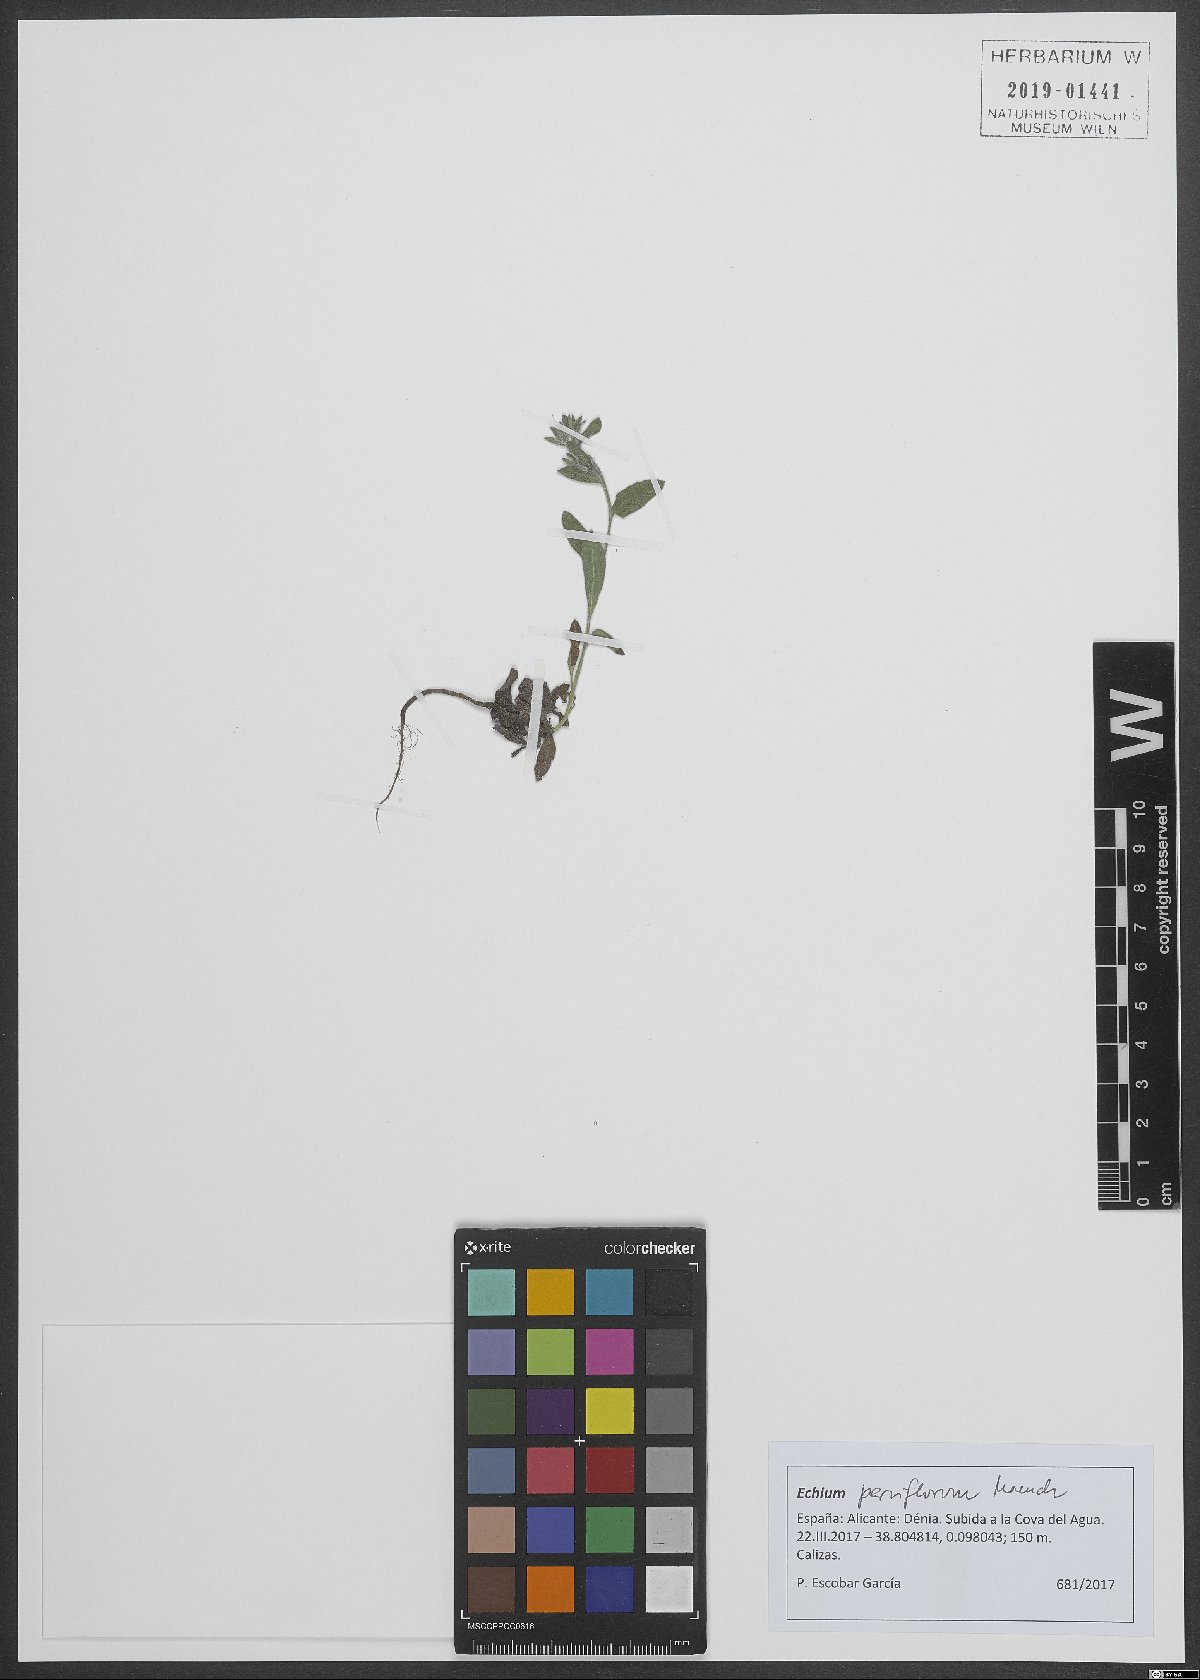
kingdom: Plantae
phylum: Tracheophyta
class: Magnoliopsida
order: Boraginales
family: Boraginaceae
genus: Echium
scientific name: Echium parviflorum
